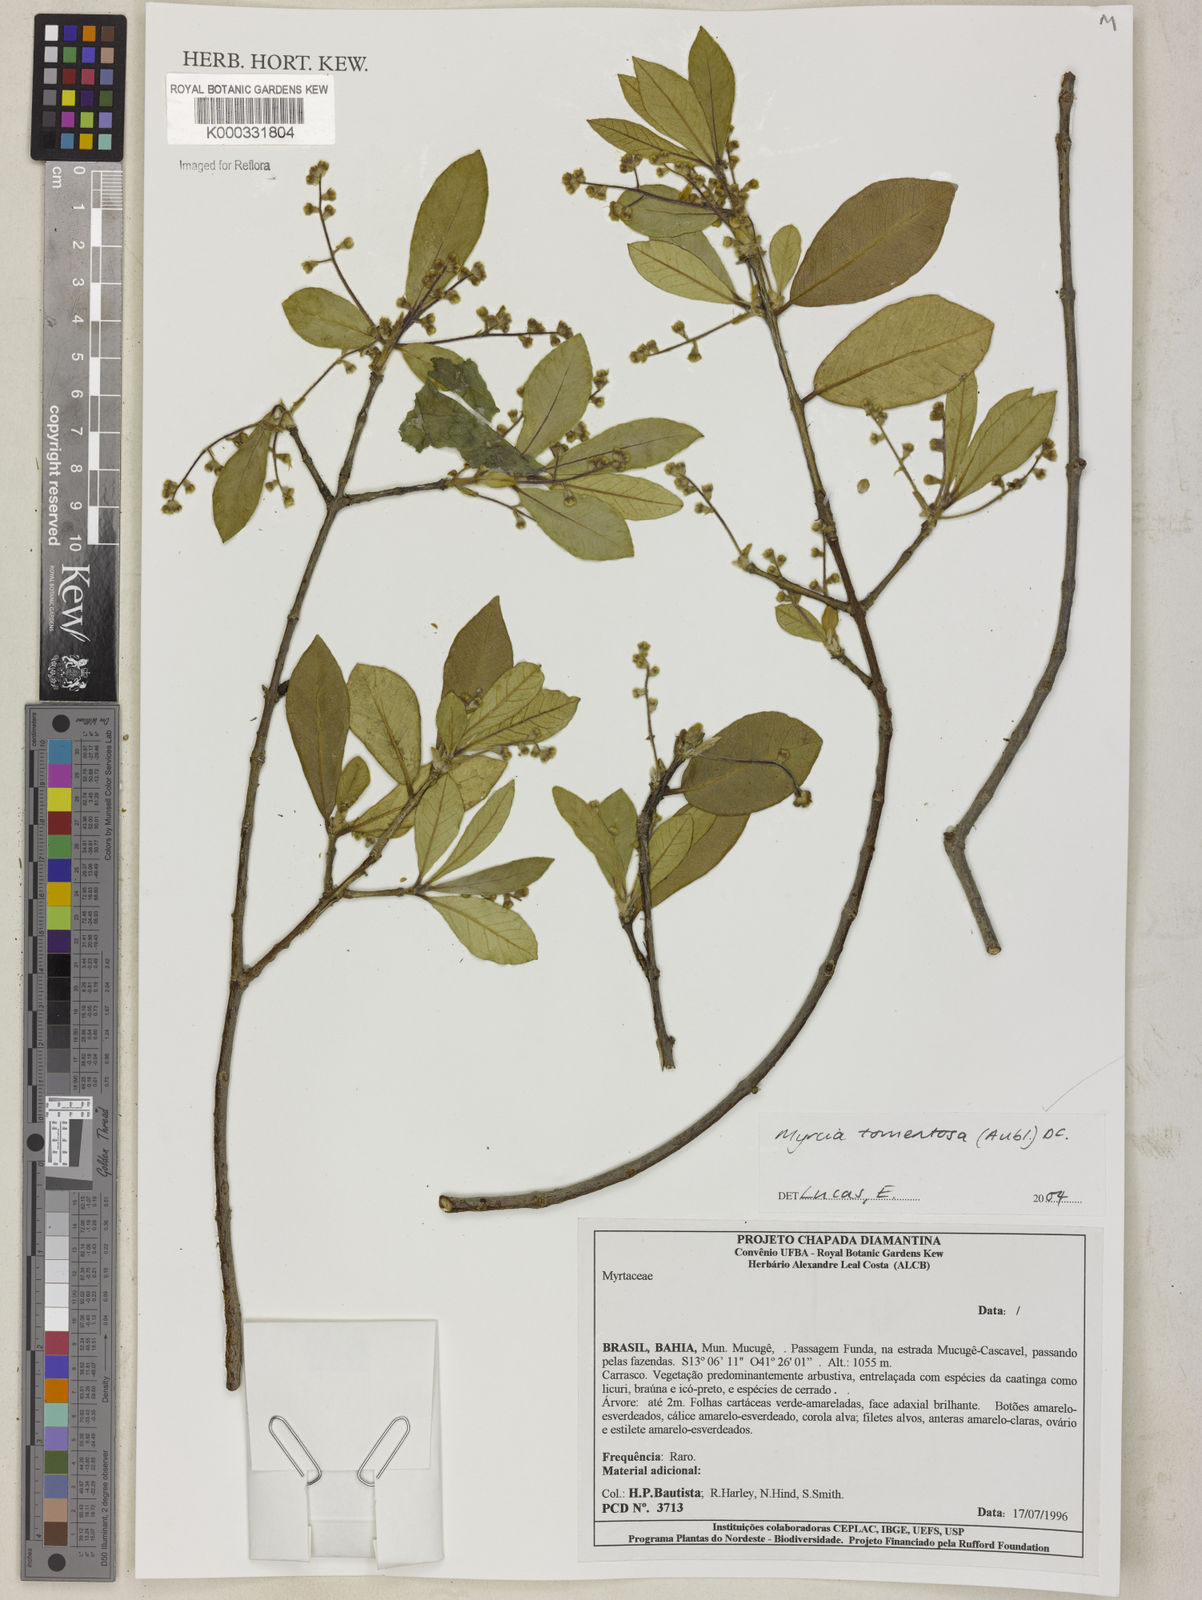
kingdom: Plantae
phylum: Tracheophyta
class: Magnoliopsida
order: Myrtales
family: Myrtaceae
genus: Myrcia
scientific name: Myrcia tomentosa
